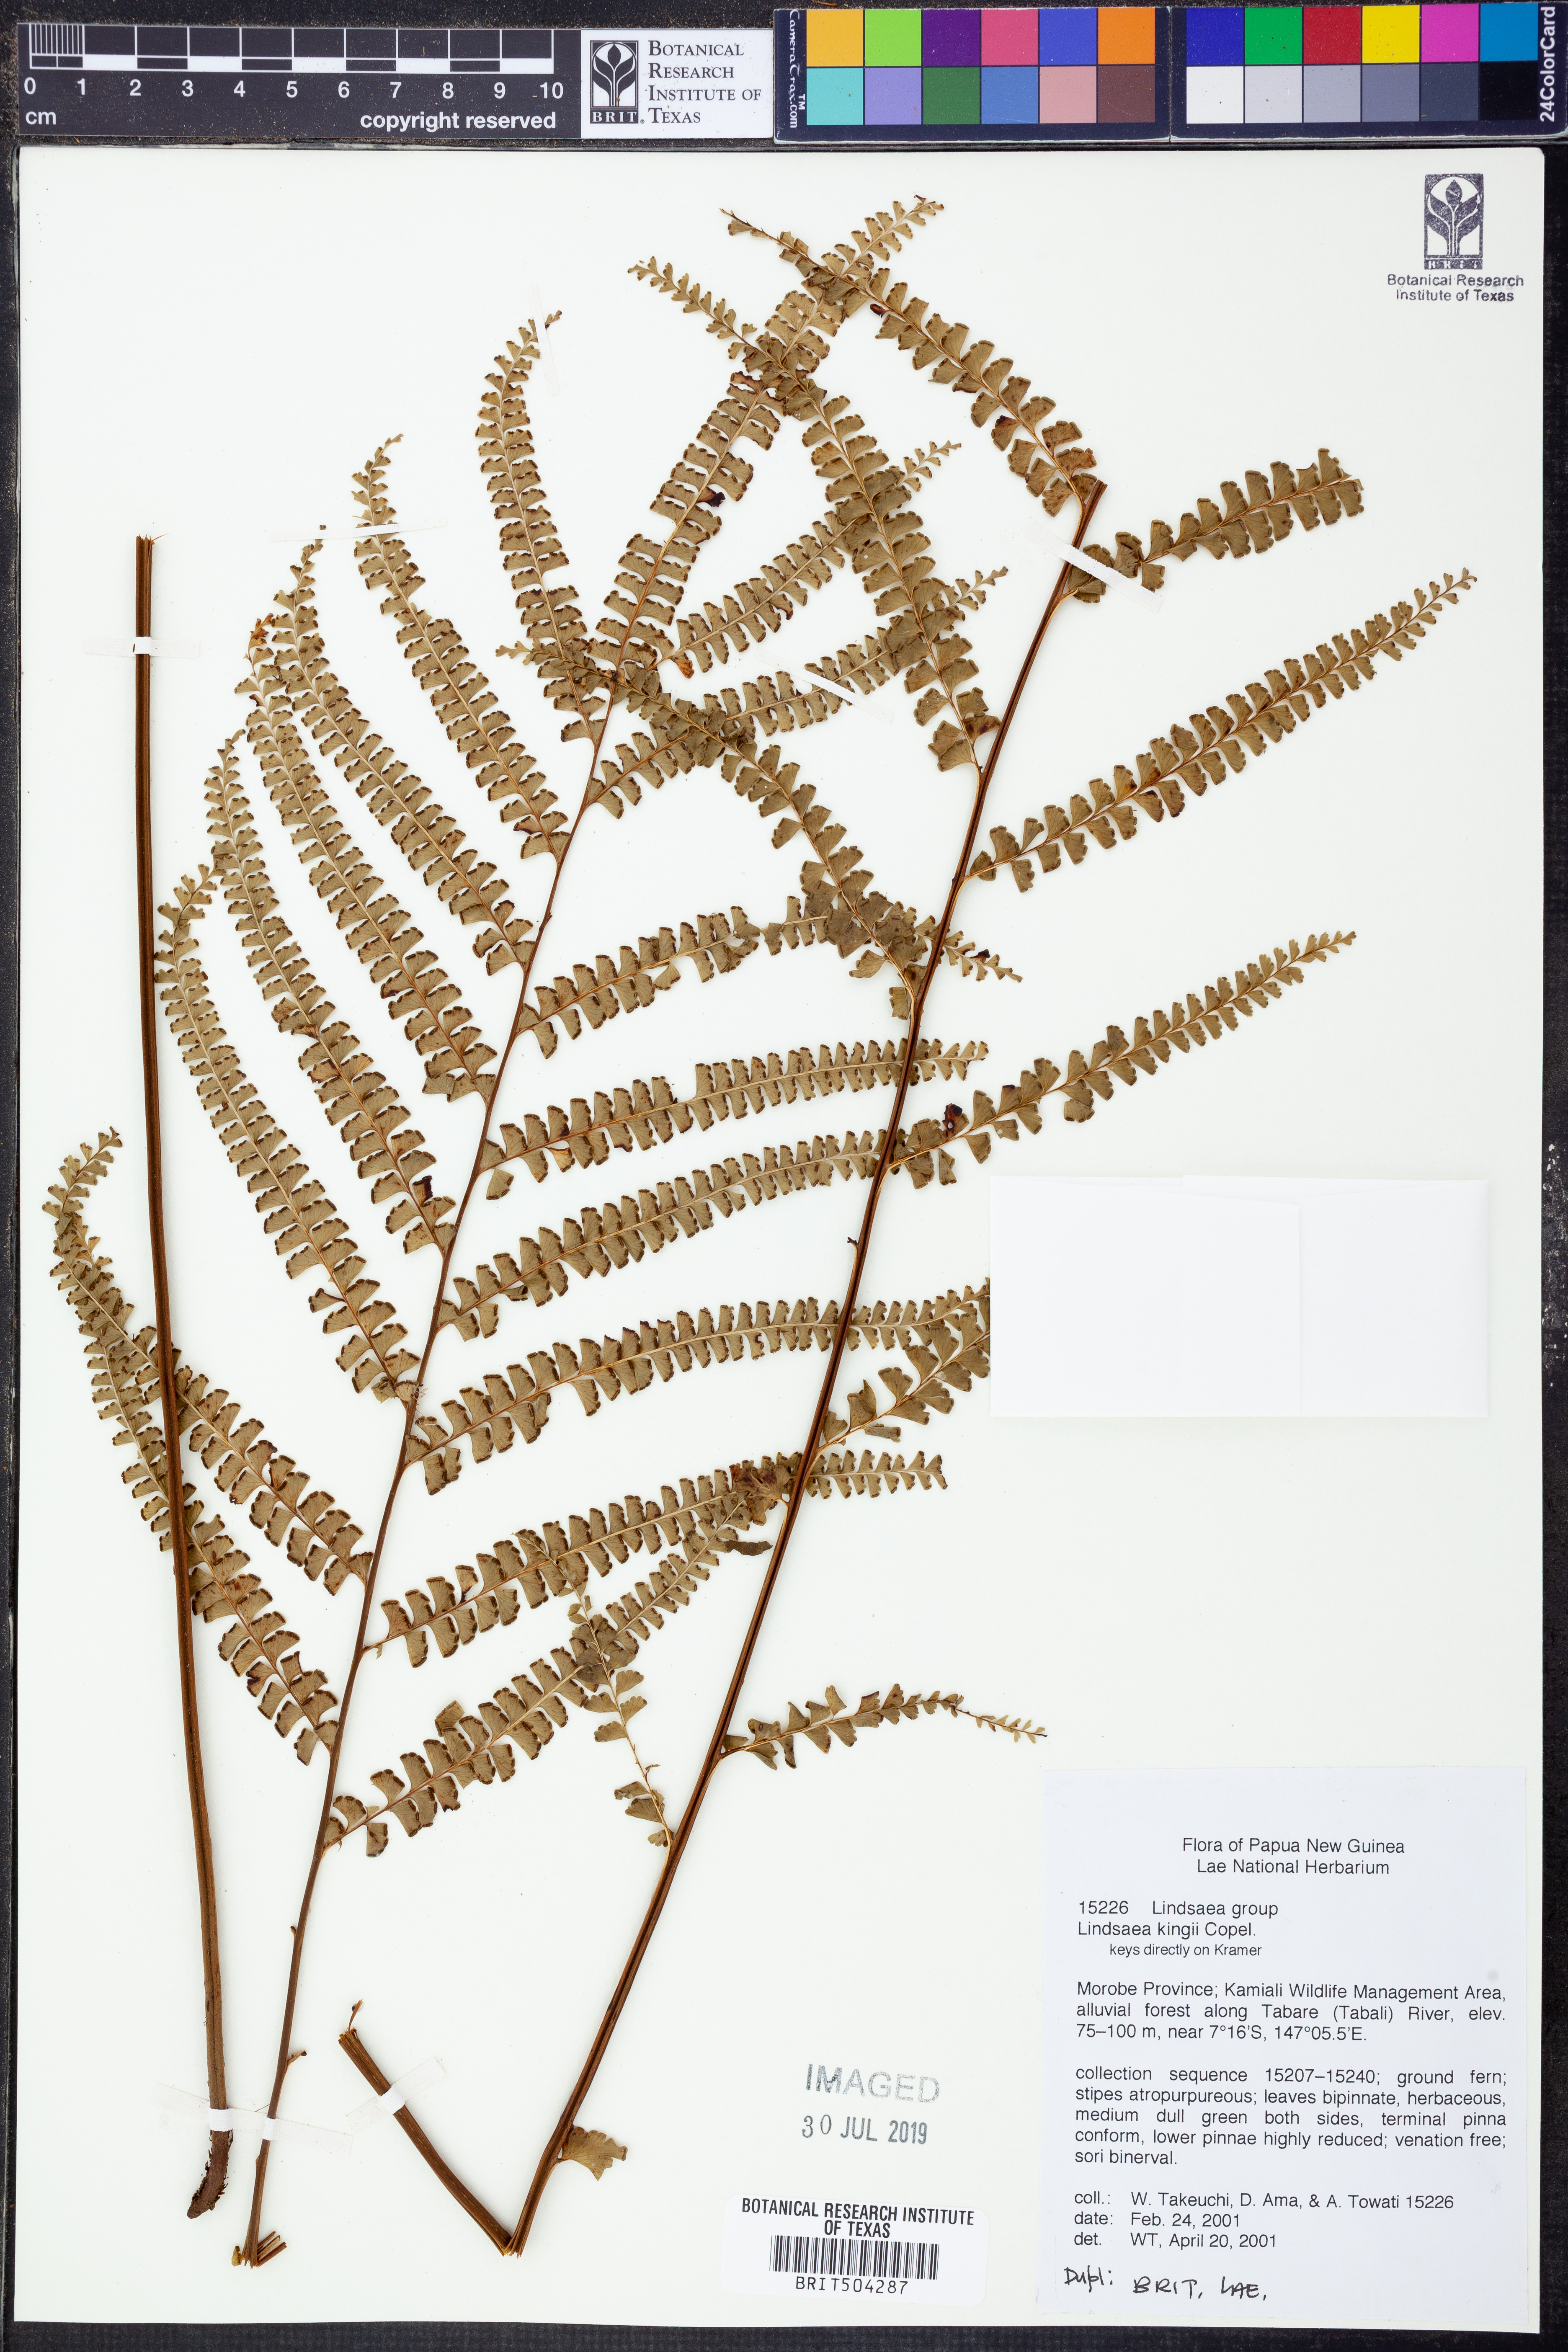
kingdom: Plantae
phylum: Tracheophyta
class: Polypodiopsida
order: Polypodiales
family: Lindsaeaceae
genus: Lindsaea
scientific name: Lindsaea kingii
